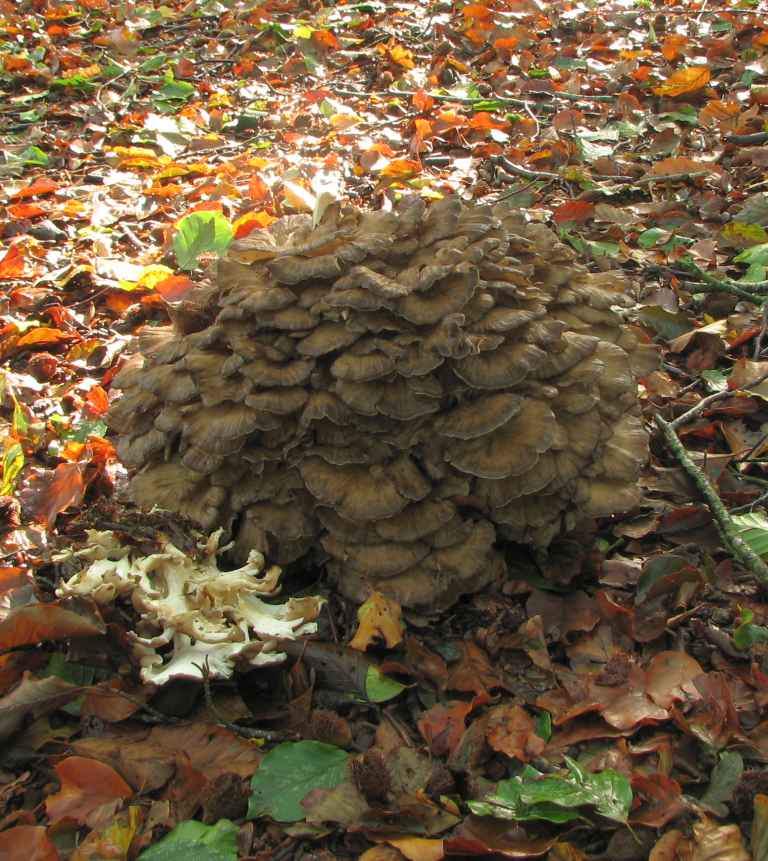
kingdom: Fungi
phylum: Basidiomycota
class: Agaricomycetes
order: Polyporales
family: Grifolaceae
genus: Grifola
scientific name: Grifola frondosa
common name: tueporesvamp
